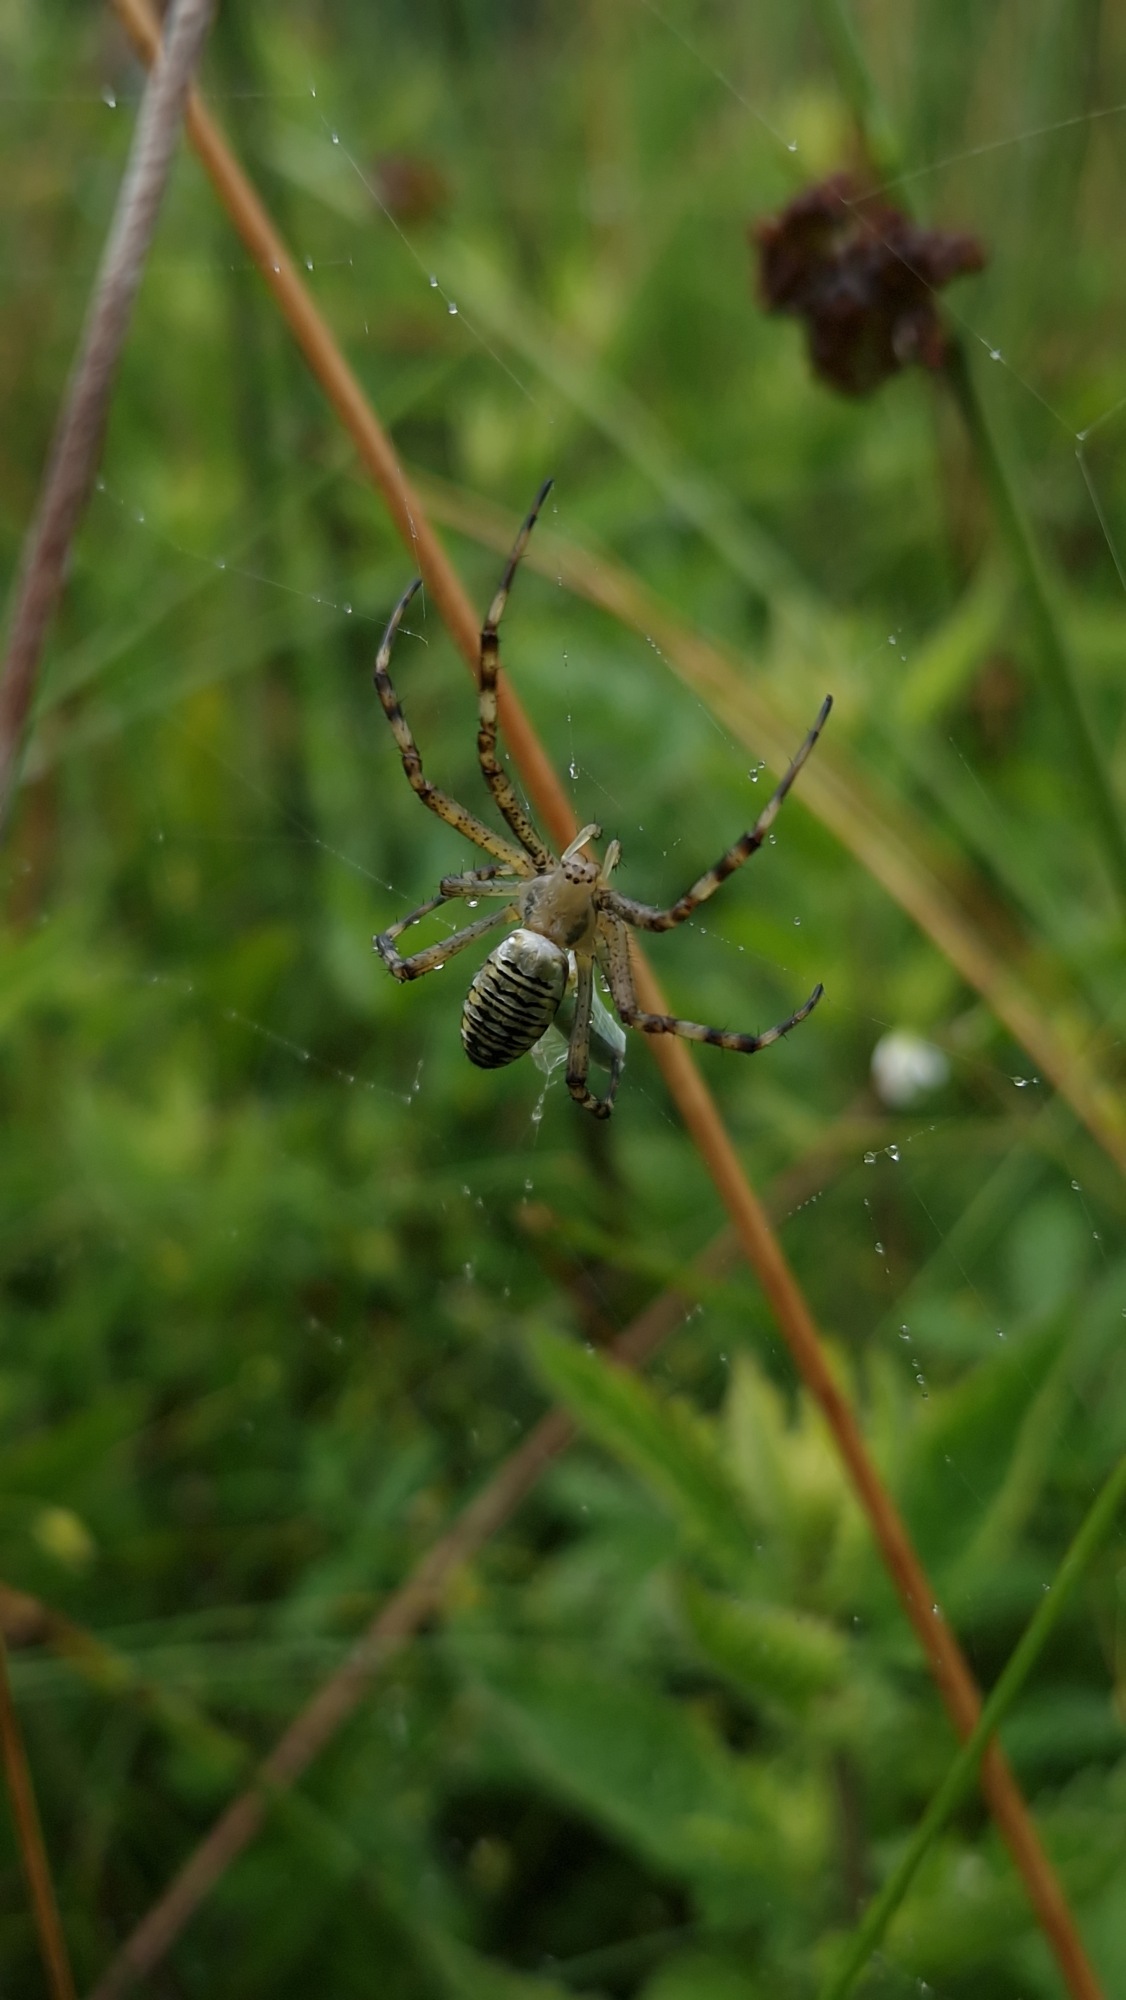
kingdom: Animalia
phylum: Arthropoda
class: Arachnida
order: Araneae
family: Araneidae
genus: Argiope
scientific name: Argiope bruennichi
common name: Hvepseedderkop
